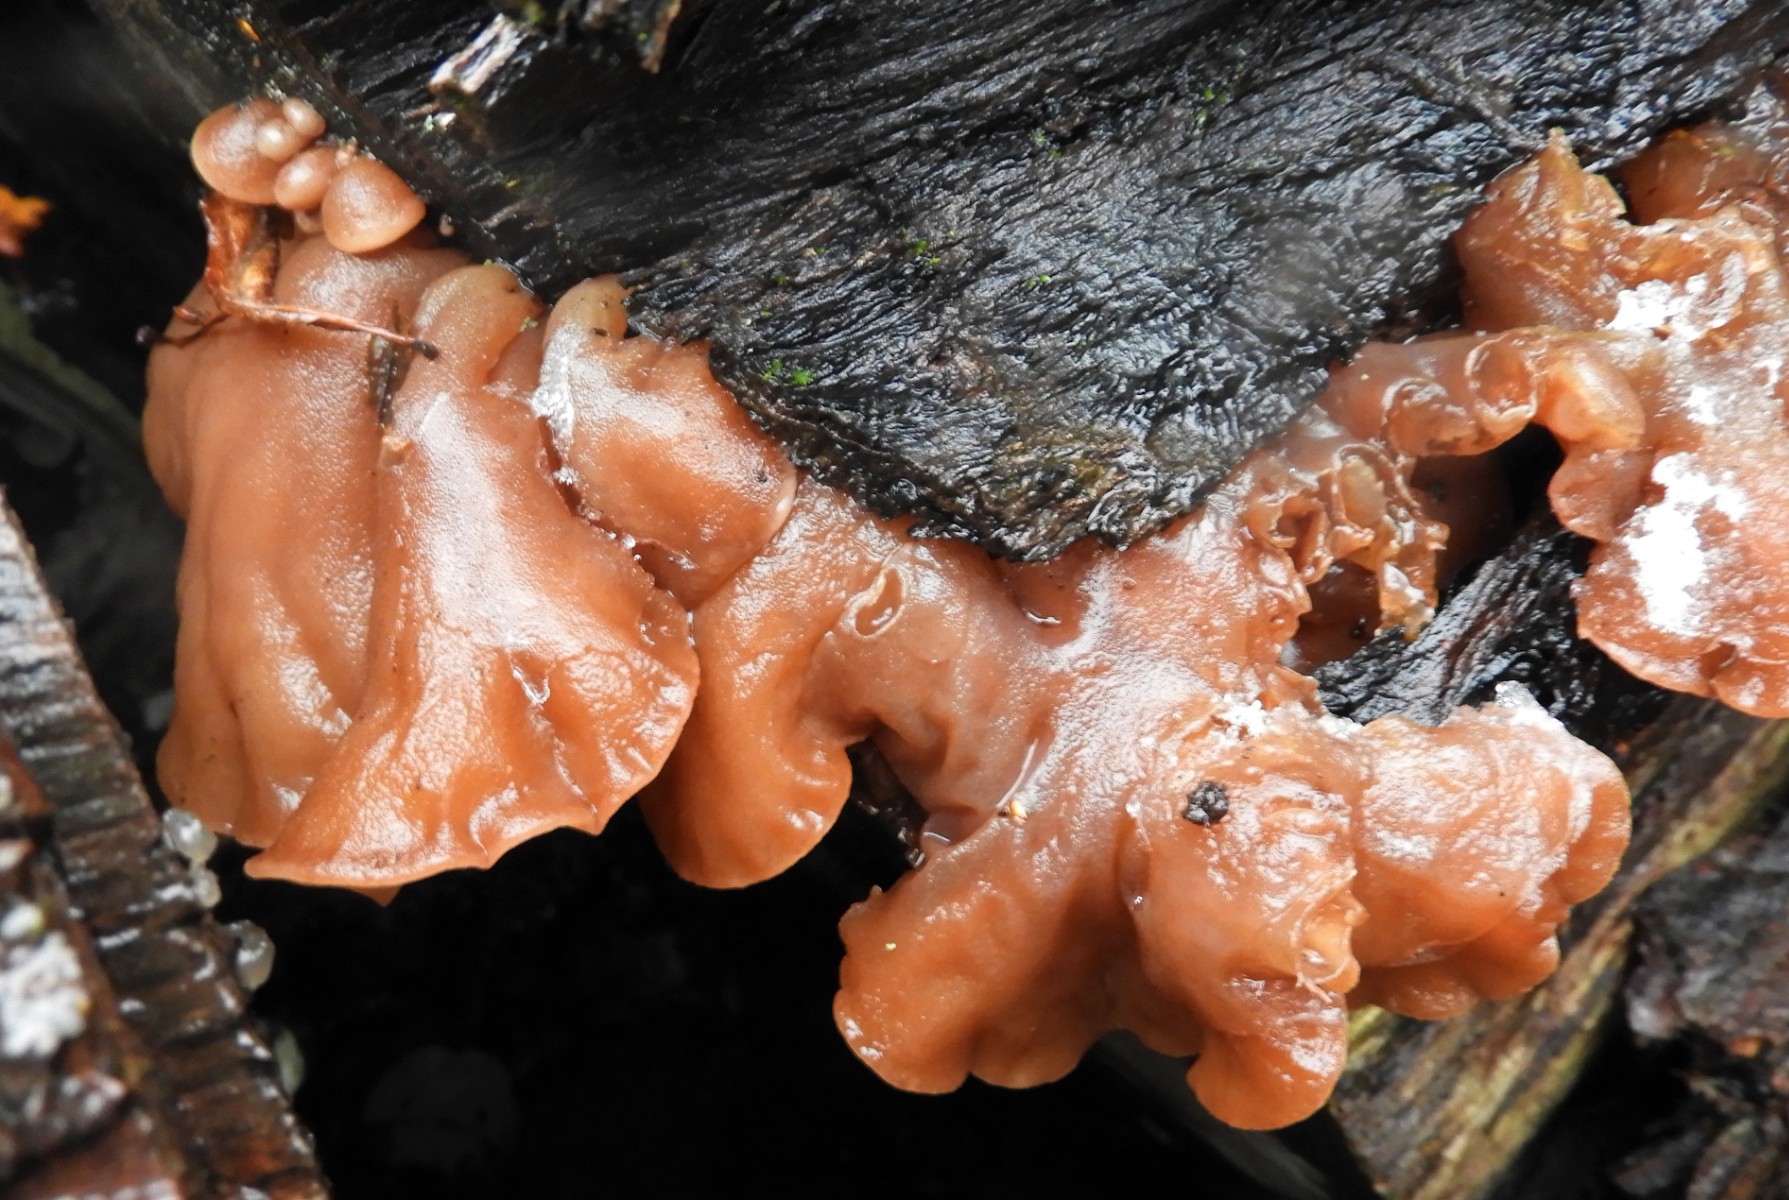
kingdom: Fungi
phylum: Basidiomycota
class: Agaricomycetes
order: Auriculariales
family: Auriculariaceae
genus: Auricularia
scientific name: Auricularia auricula-judae
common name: almindelig judasøre
